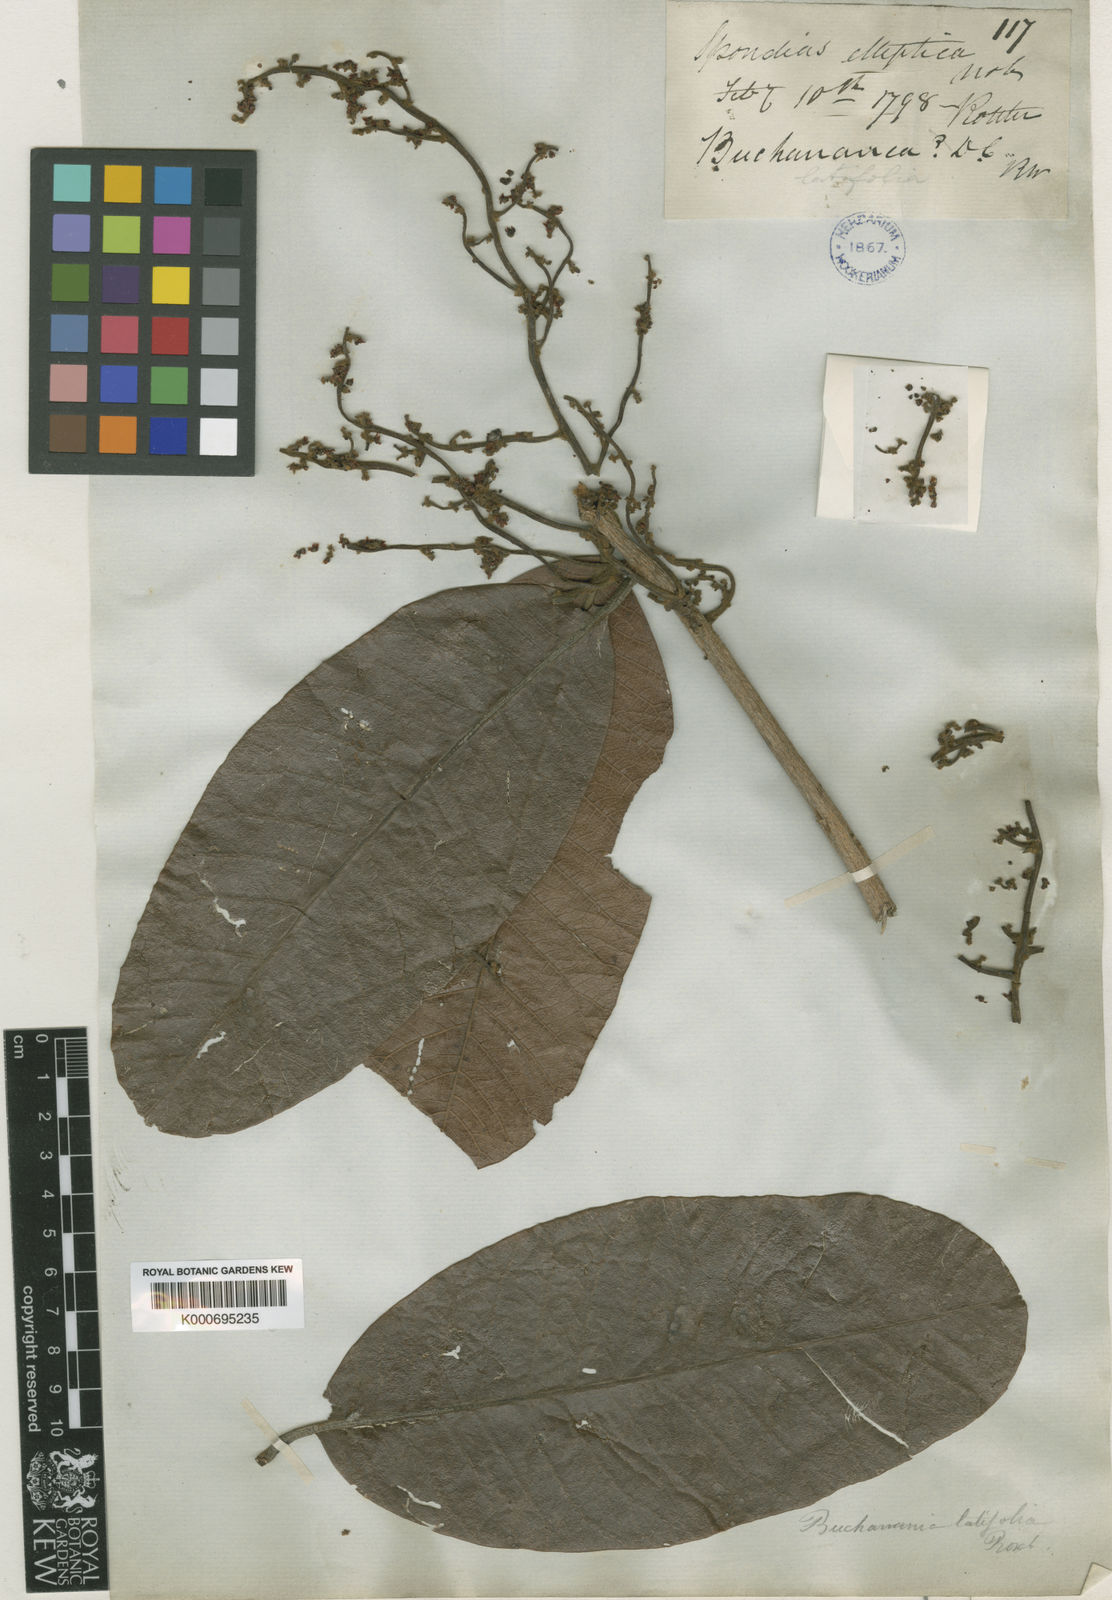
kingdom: Plantae
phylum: Tracheophyta
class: Magnoliopsida
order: Sapindales
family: Anacardiaceae
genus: Buchanania
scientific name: Buchanania cochinchinensis
